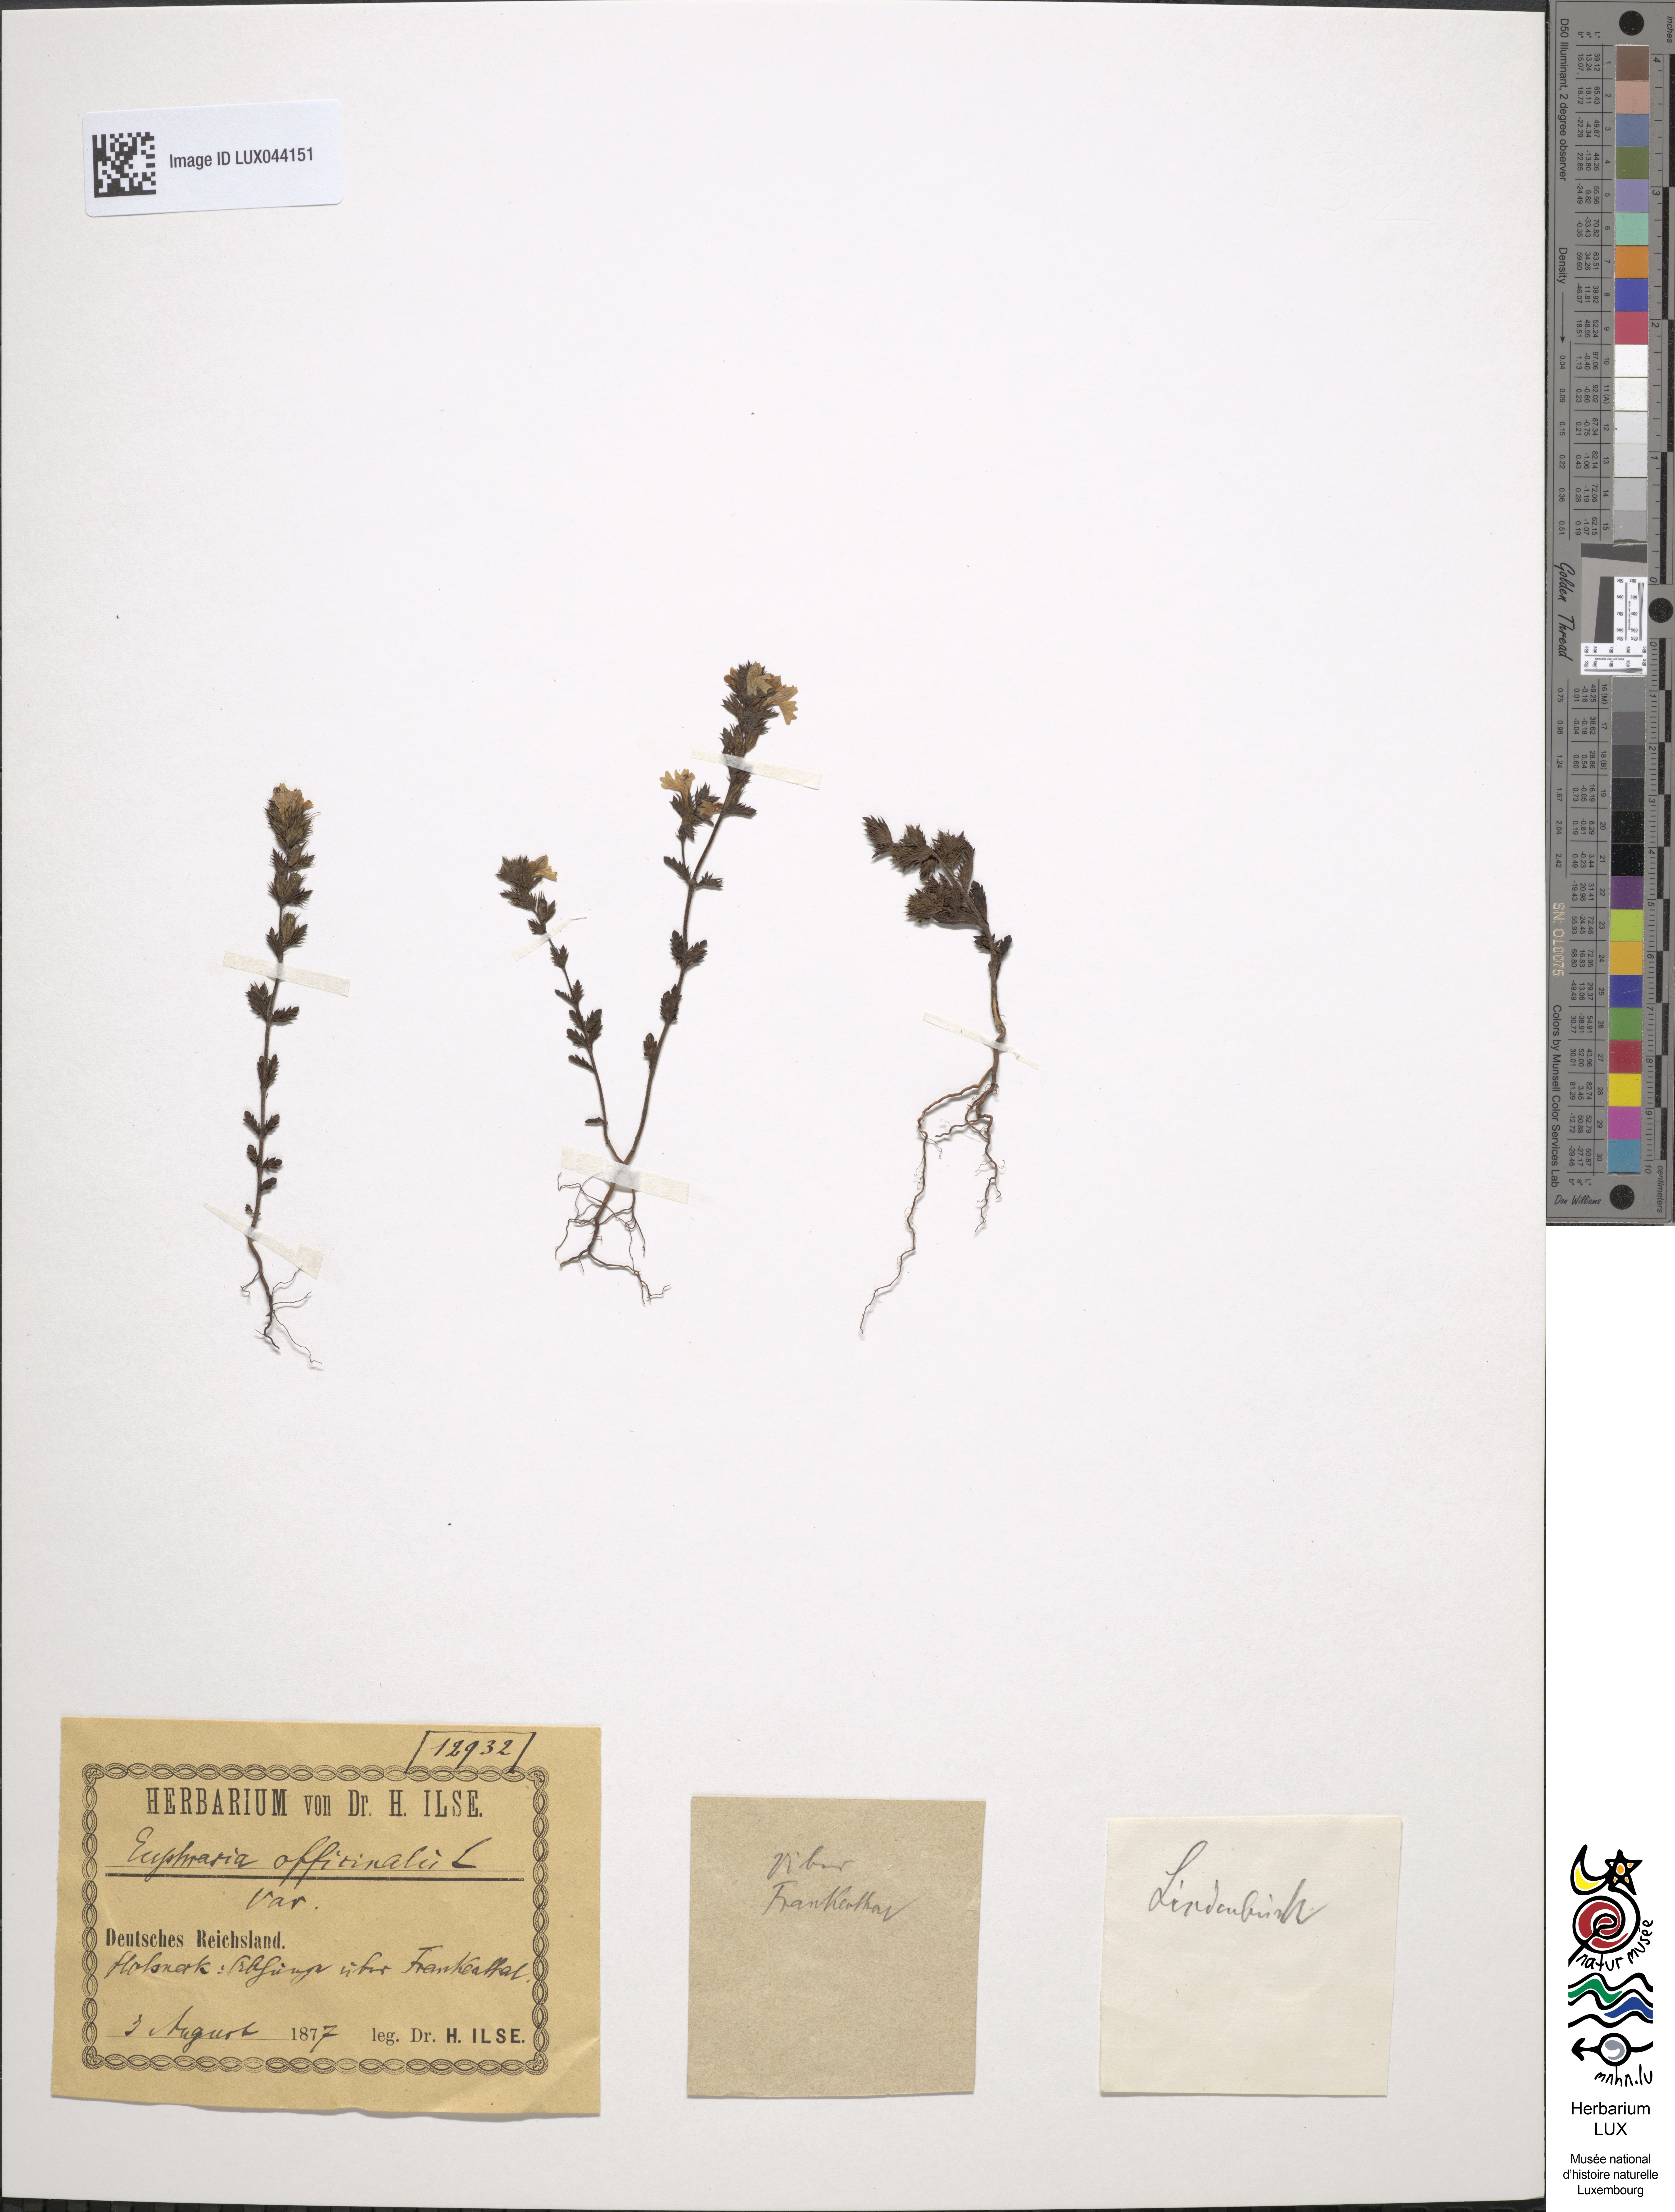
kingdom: Plantae
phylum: Tracheophyta
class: Magnoliopsida
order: Lamiales
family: Orobanchaceae
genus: Euphrasia
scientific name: Euphrasia officinalis
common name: Eyebright
